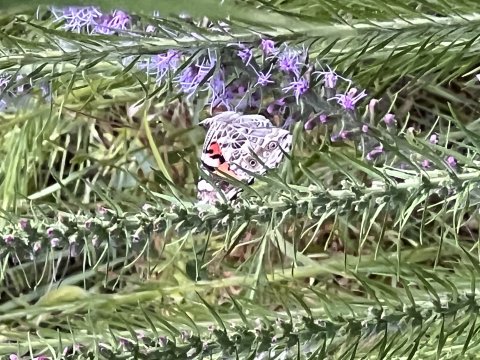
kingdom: Animalia
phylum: Arthropoda
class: Insecta
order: Lepidoptera
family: Nymphalidae
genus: Vanessa
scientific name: Vanessa cardui
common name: Painted Lady
